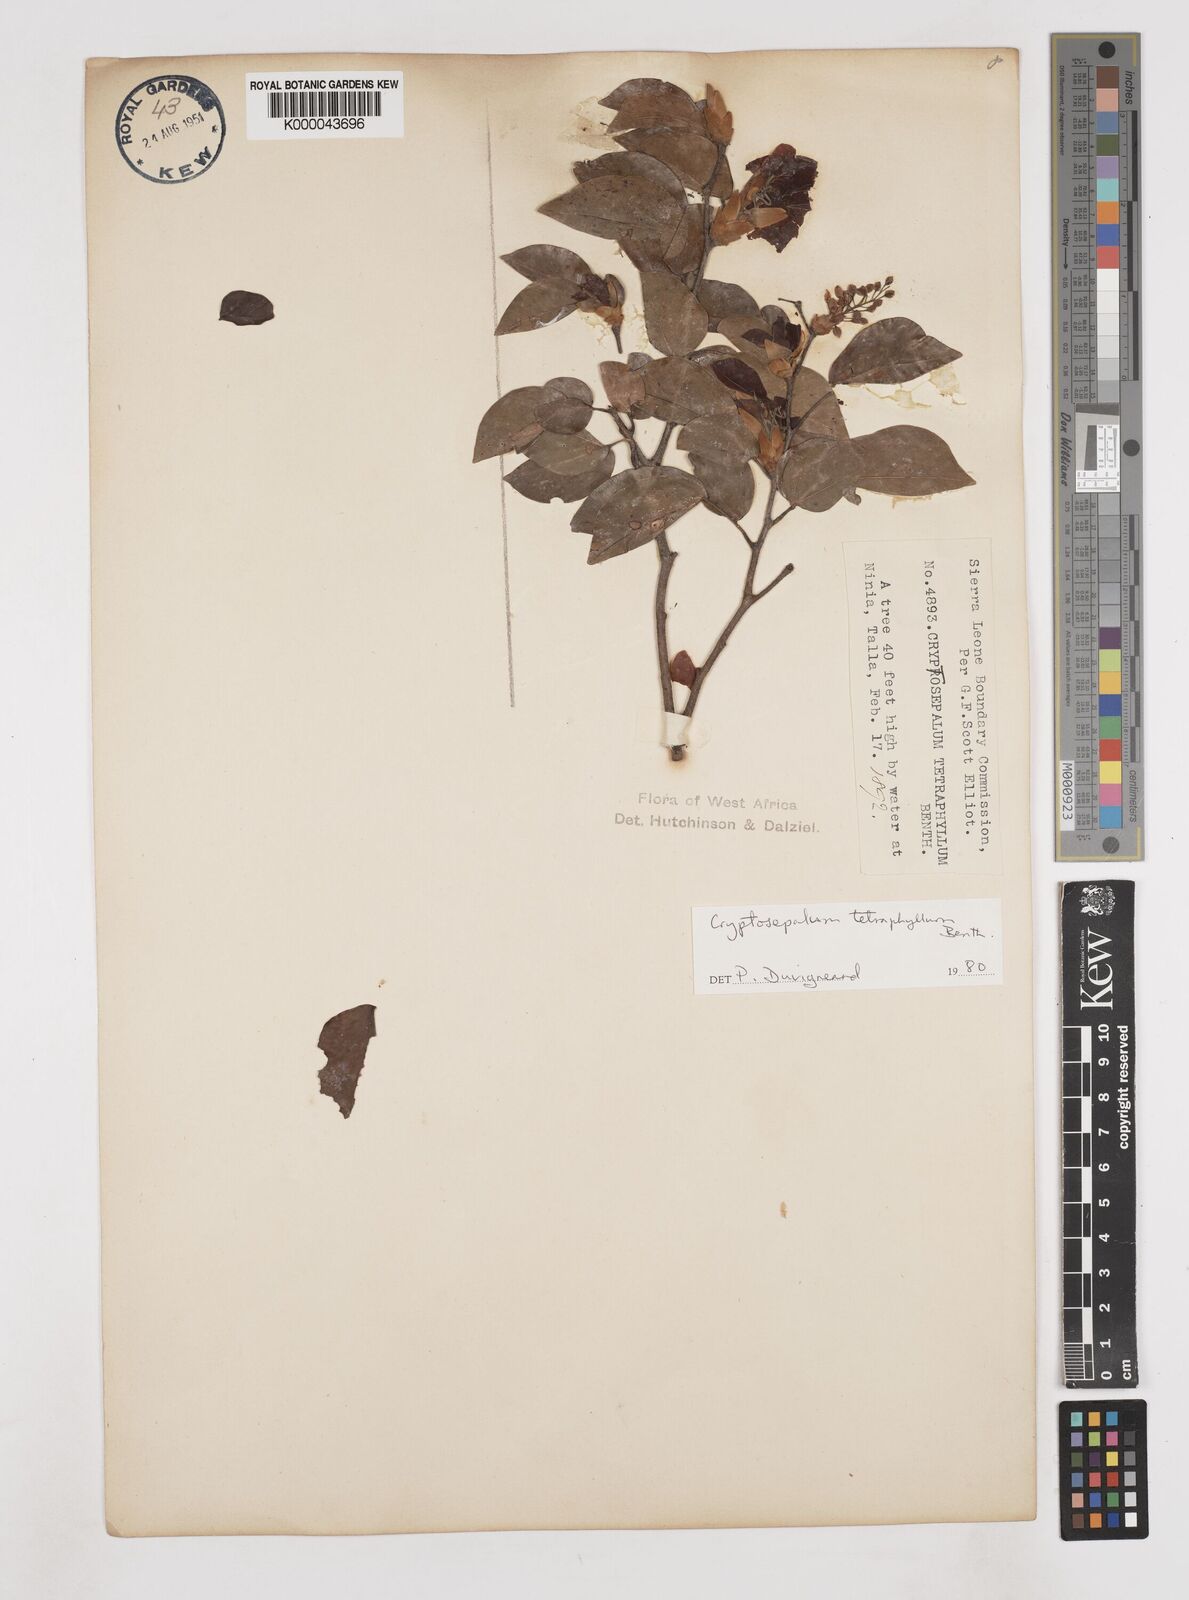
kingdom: Plantae
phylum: Tracheophyta
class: Magnoliopsida
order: Fabales
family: Fabaceae
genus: Cryptosepalum
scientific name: Cryptosepalum tetraphyllum
